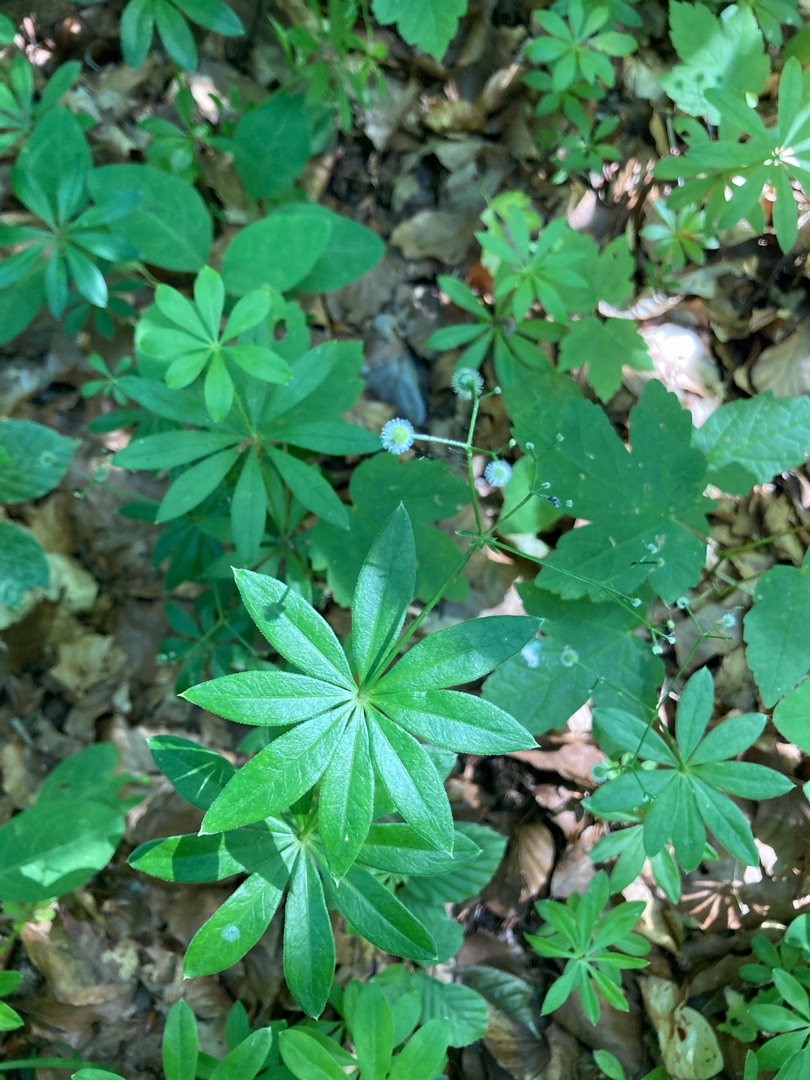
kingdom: Plantae
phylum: Tracheophyta
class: Magnoliopsida
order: Gentianales
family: Rubiaceae
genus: Galium
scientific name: Galium odoratum
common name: Skovmærke
